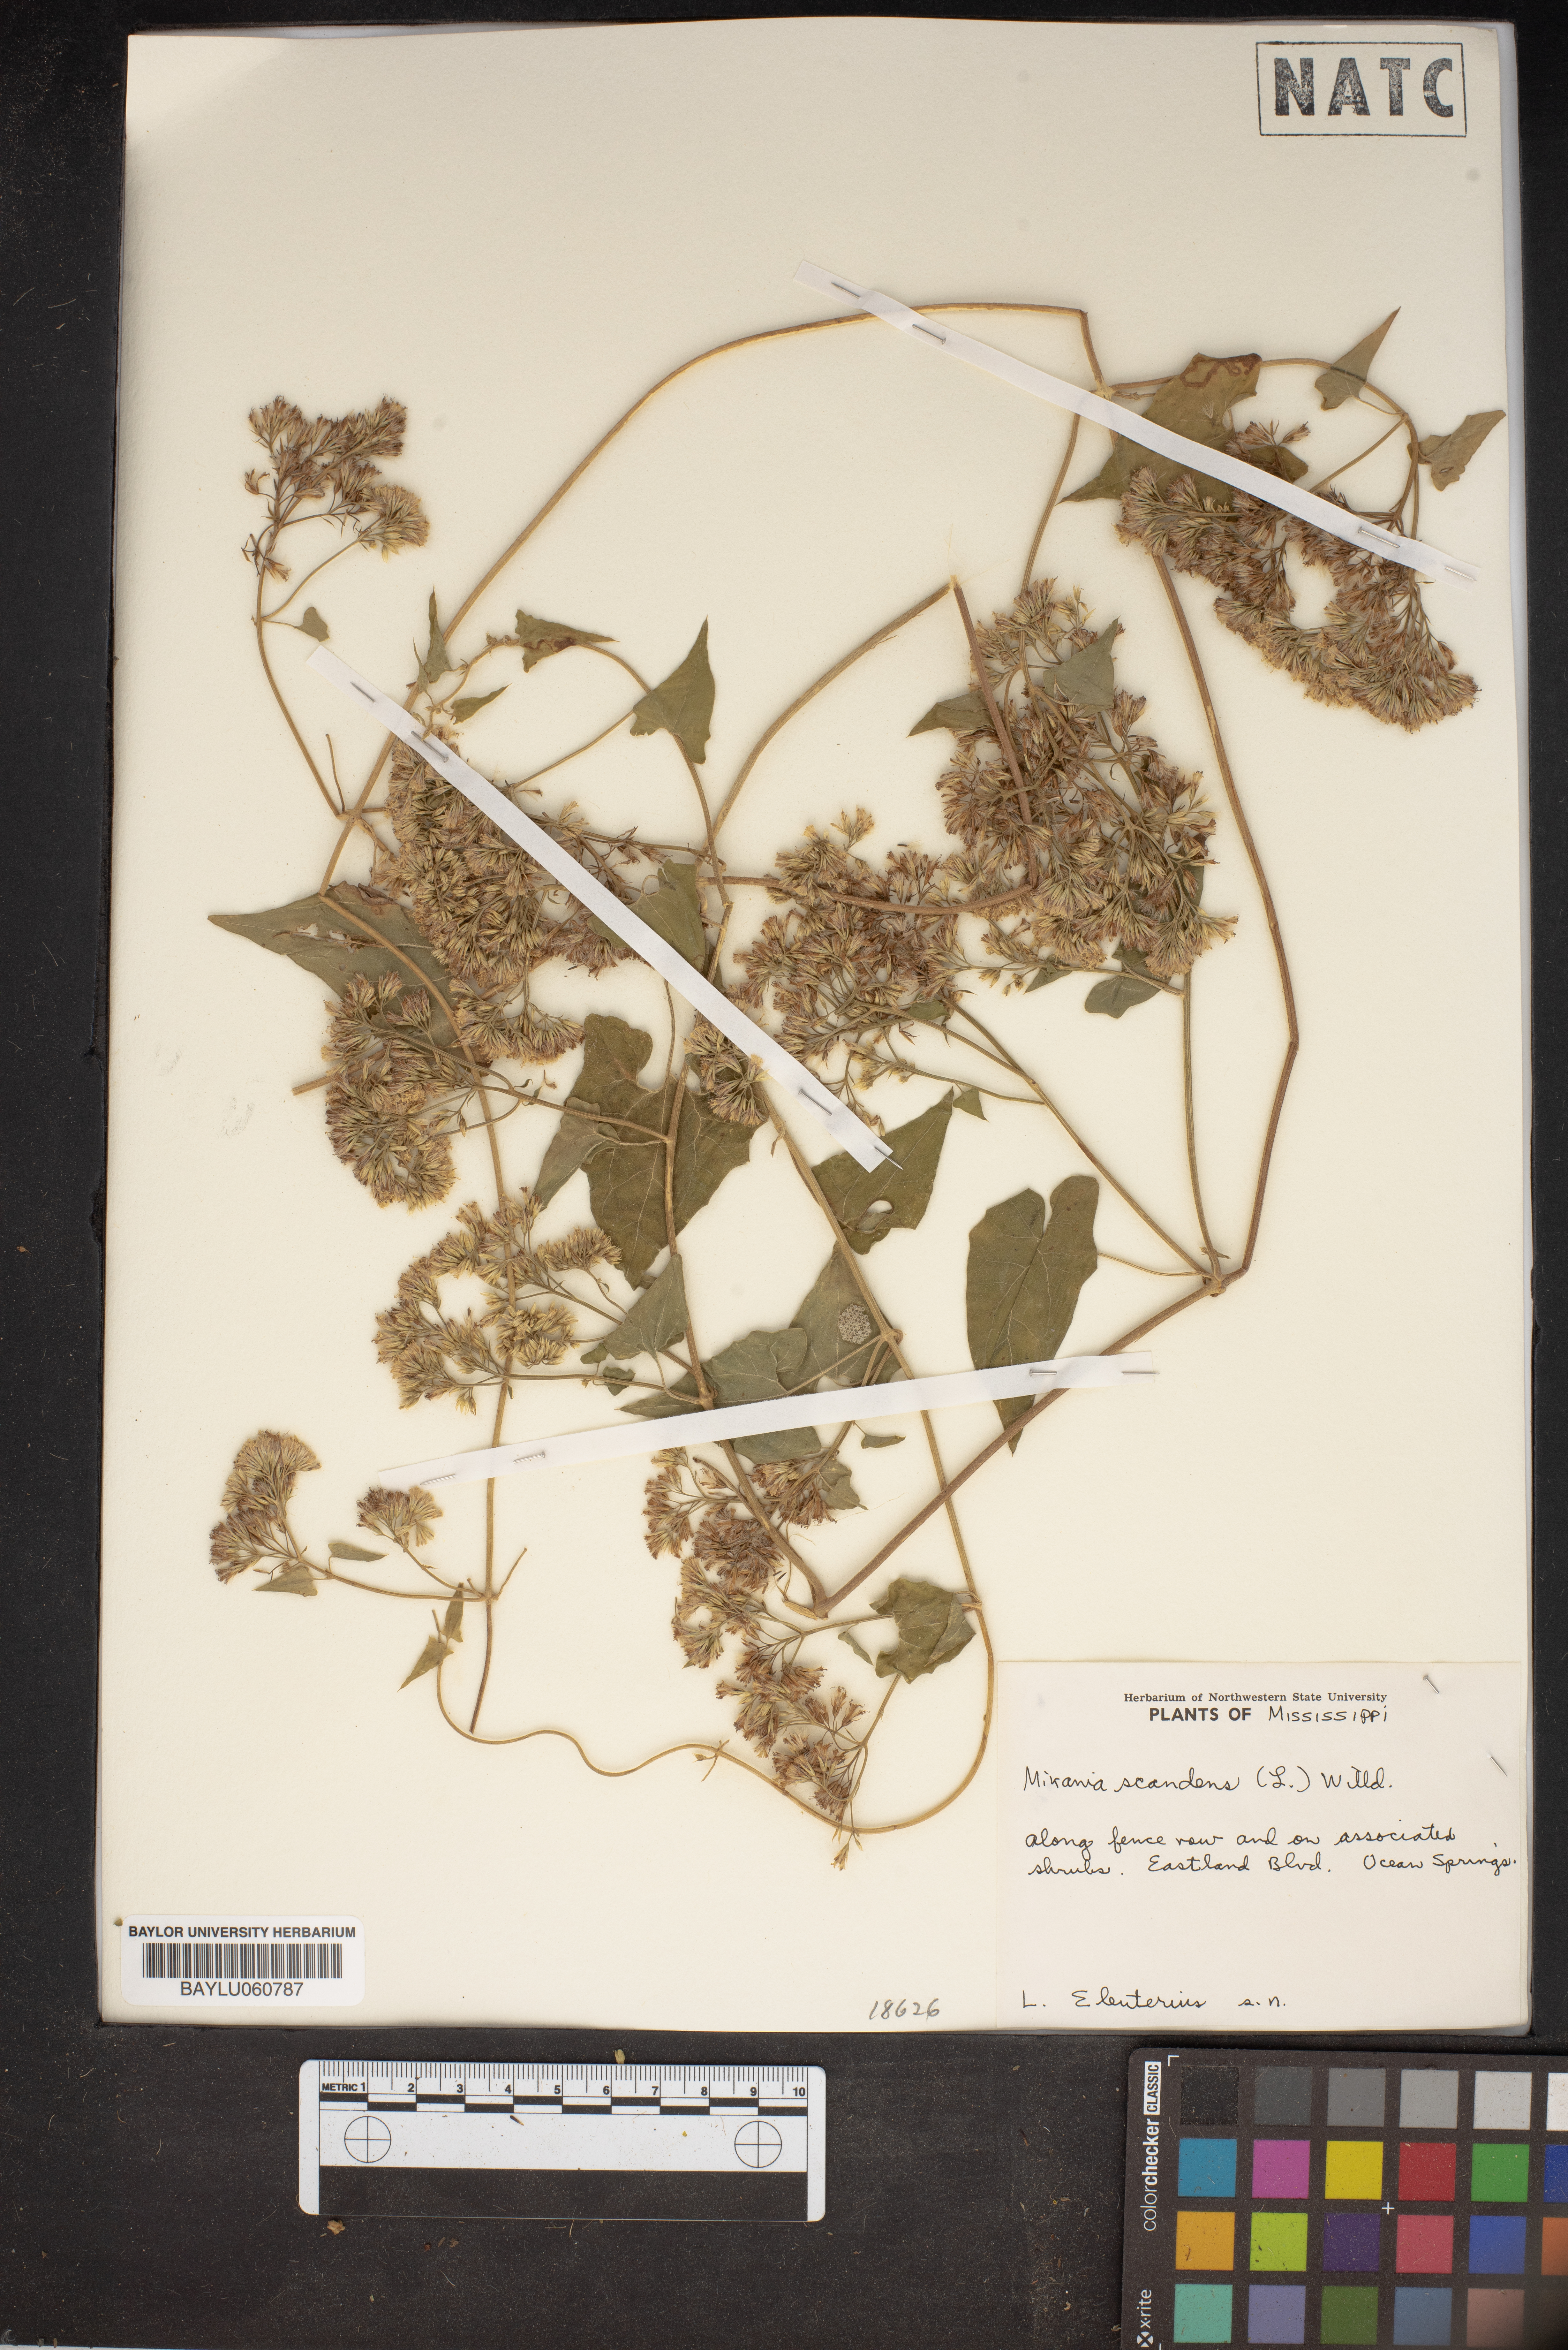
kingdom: Plantae
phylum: Tracheophyta
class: Magnoliopsida
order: Asterales
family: Asteraceae
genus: Mikania
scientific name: Mikania scandens
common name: Climbing hempvine
